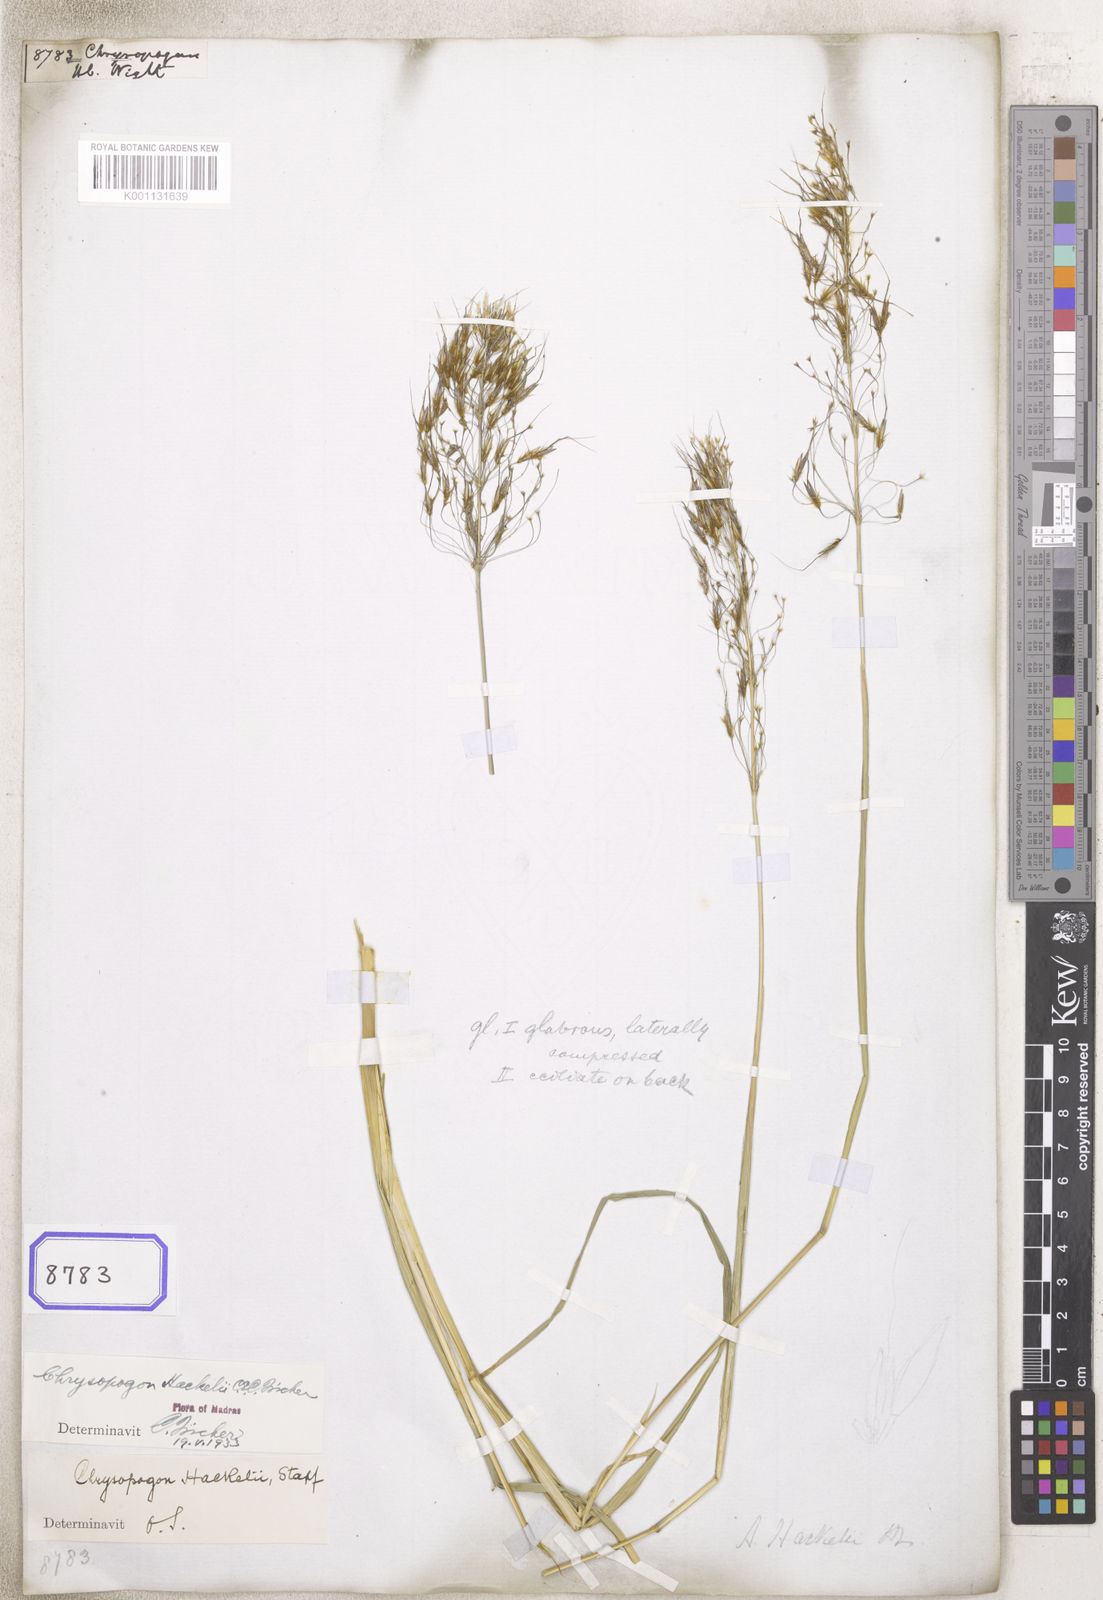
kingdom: Plantae
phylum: Tracheophyta
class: Liliopsida
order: Poales
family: Poaceae
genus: Chrysopogon
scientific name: Chrysopogon
